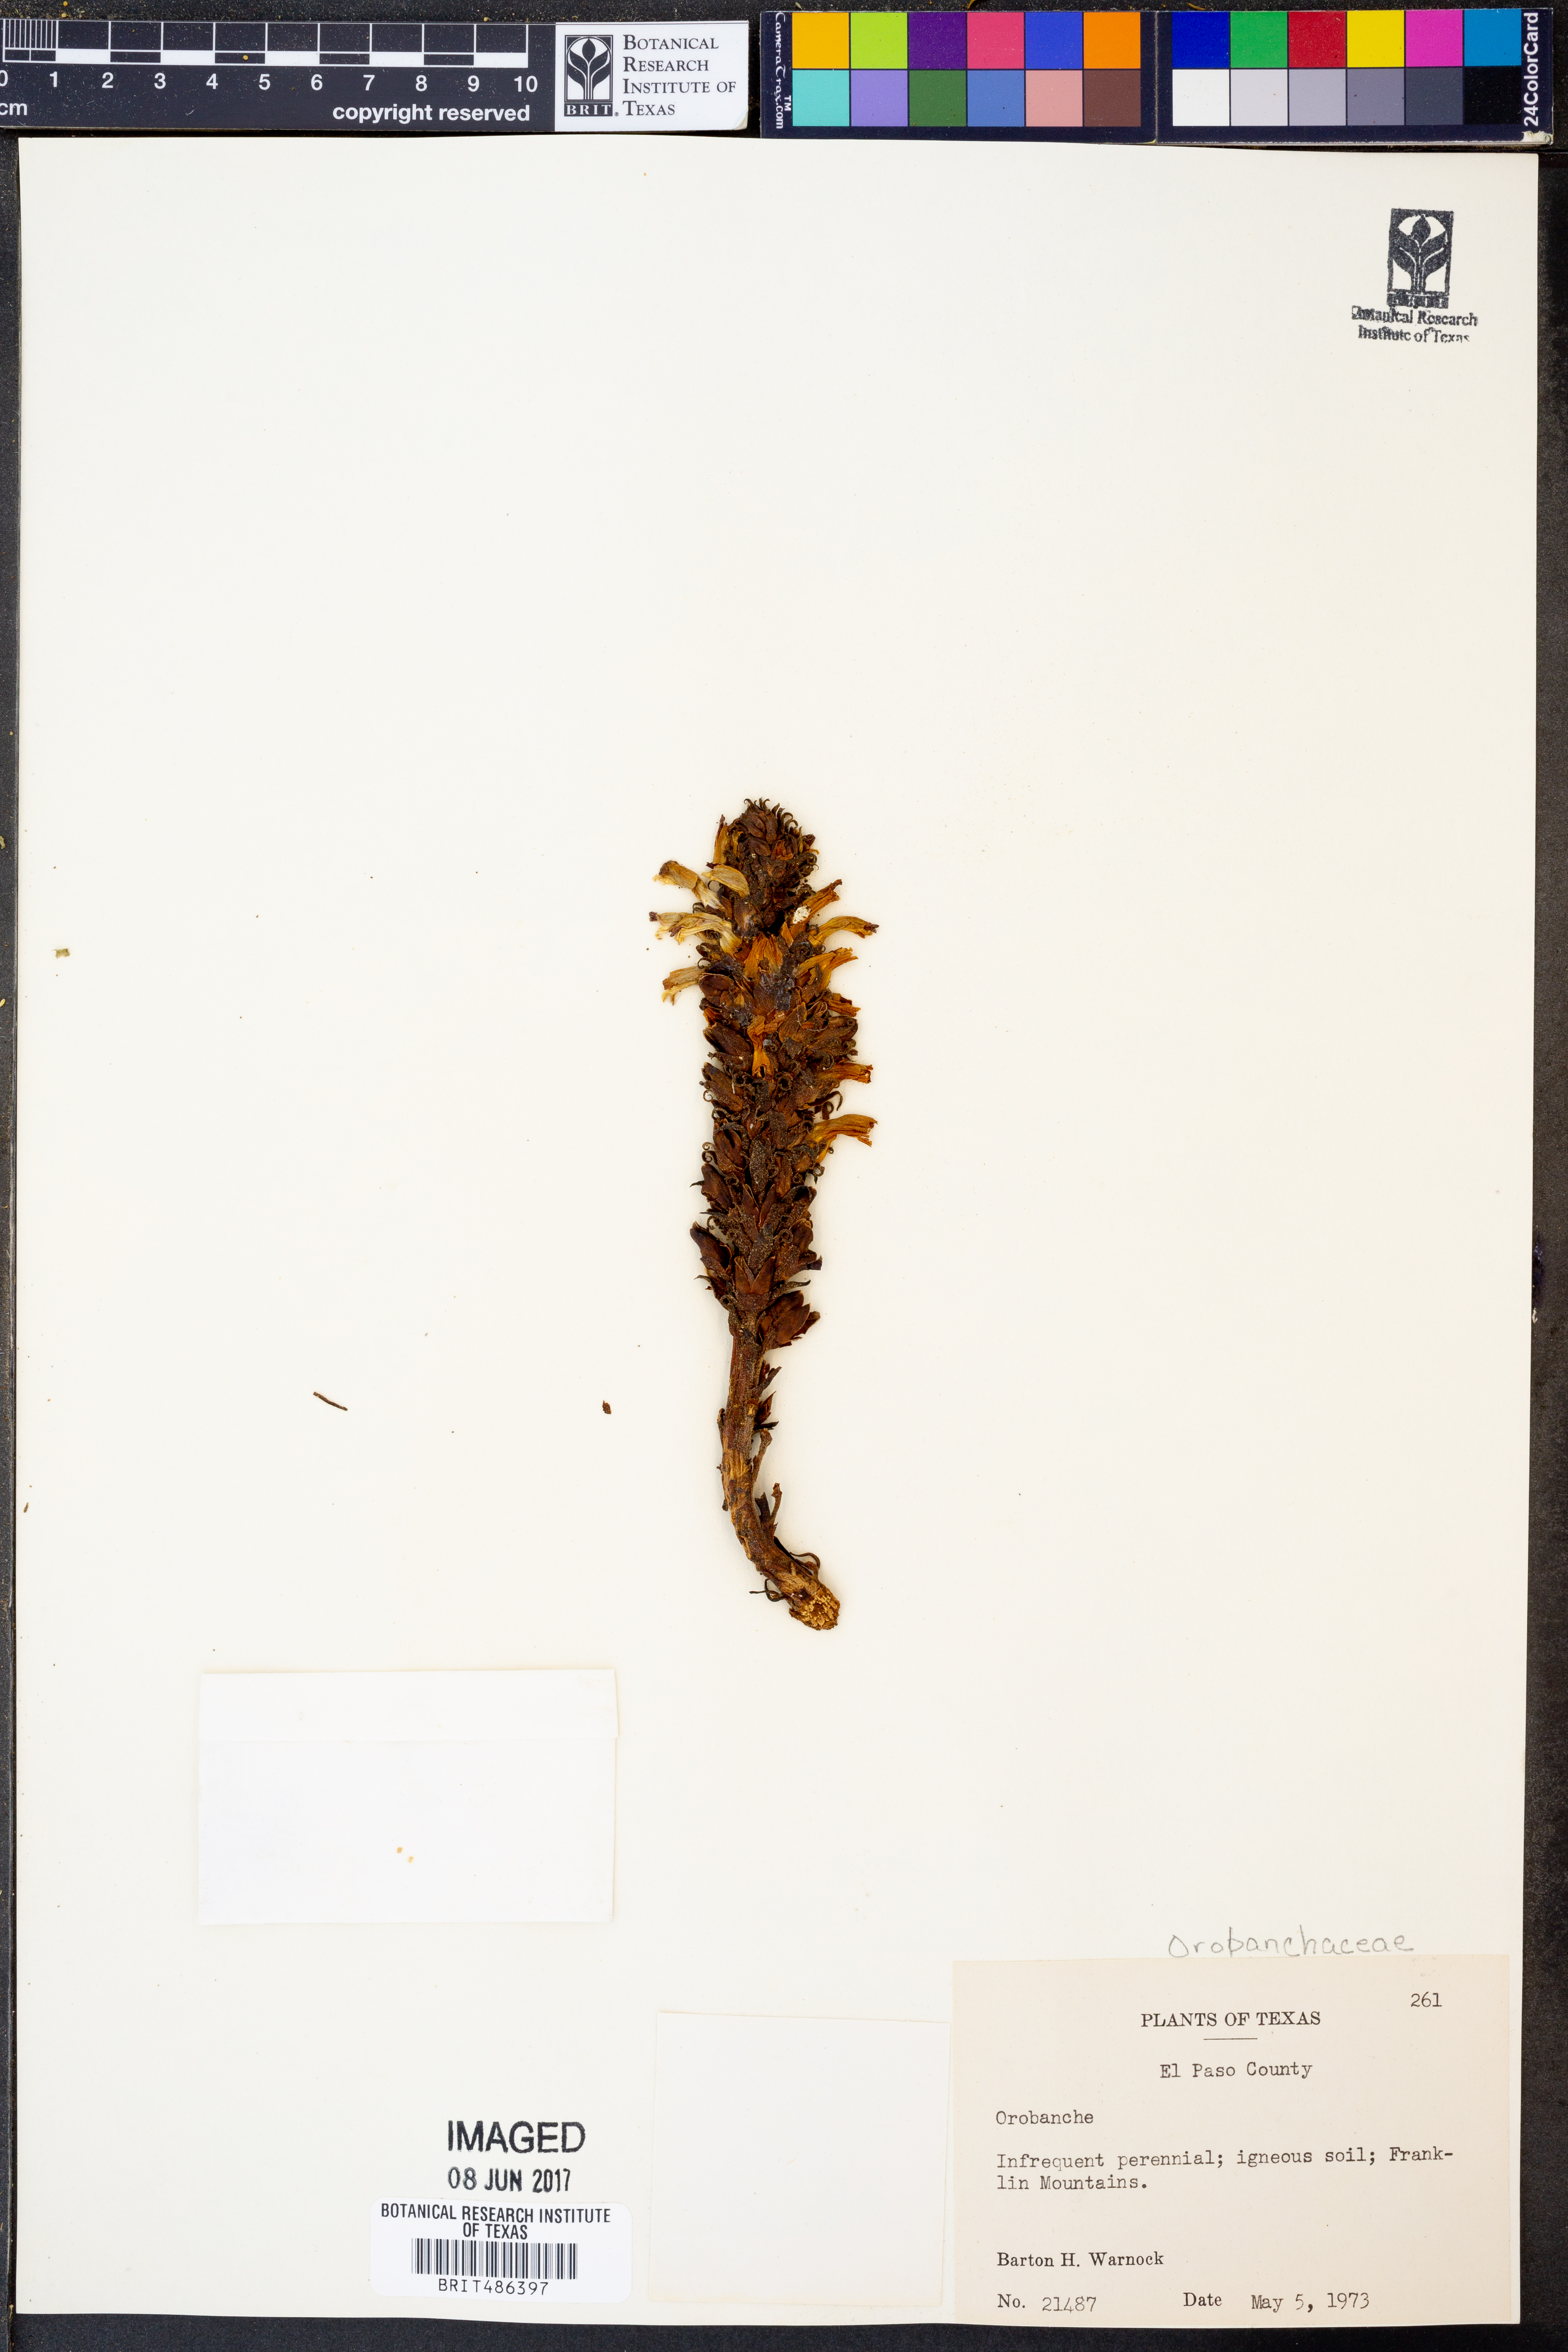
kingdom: Plantae
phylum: Tracheophyta
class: Magnoliopsida
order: Lamiales
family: Orobanchaceae
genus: Orobanche
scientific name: Orobanche
